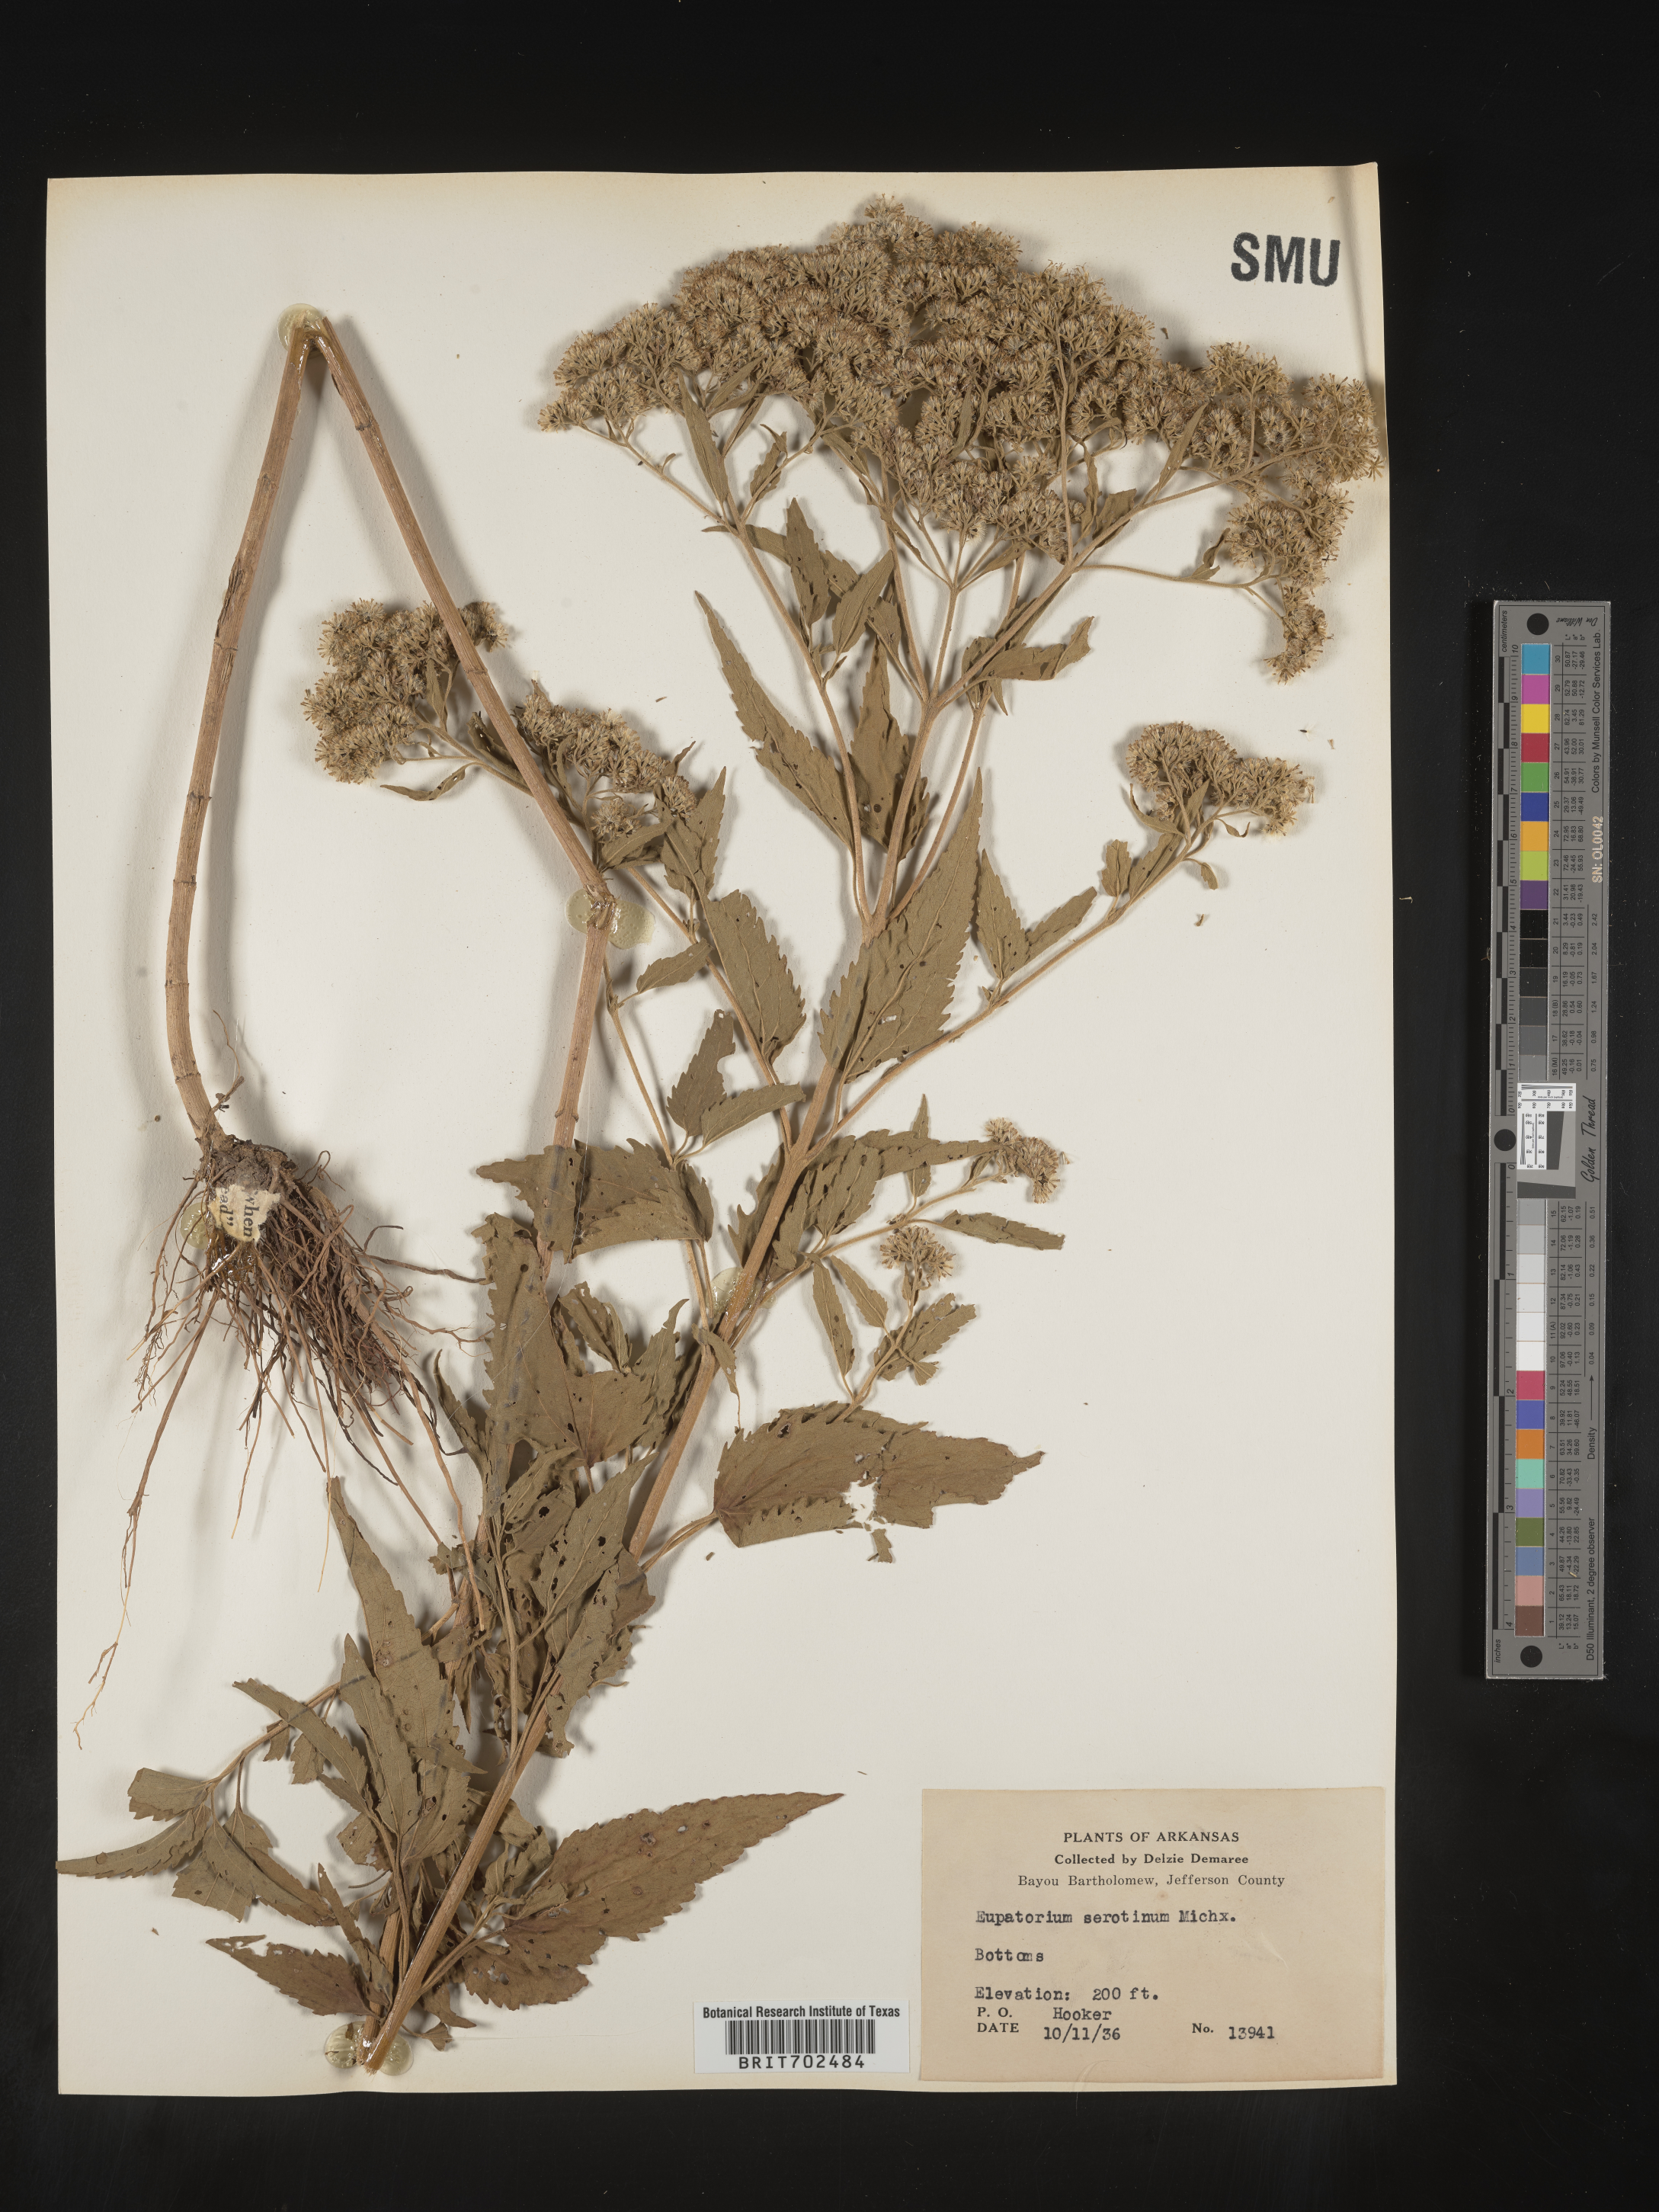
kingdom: Plantae
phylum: Tracheophyta
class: Magnoliopsida
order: Asterales
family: Asteraceae
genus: Eupatorium
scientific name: Eupatorium serotinum
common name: Late boneset
